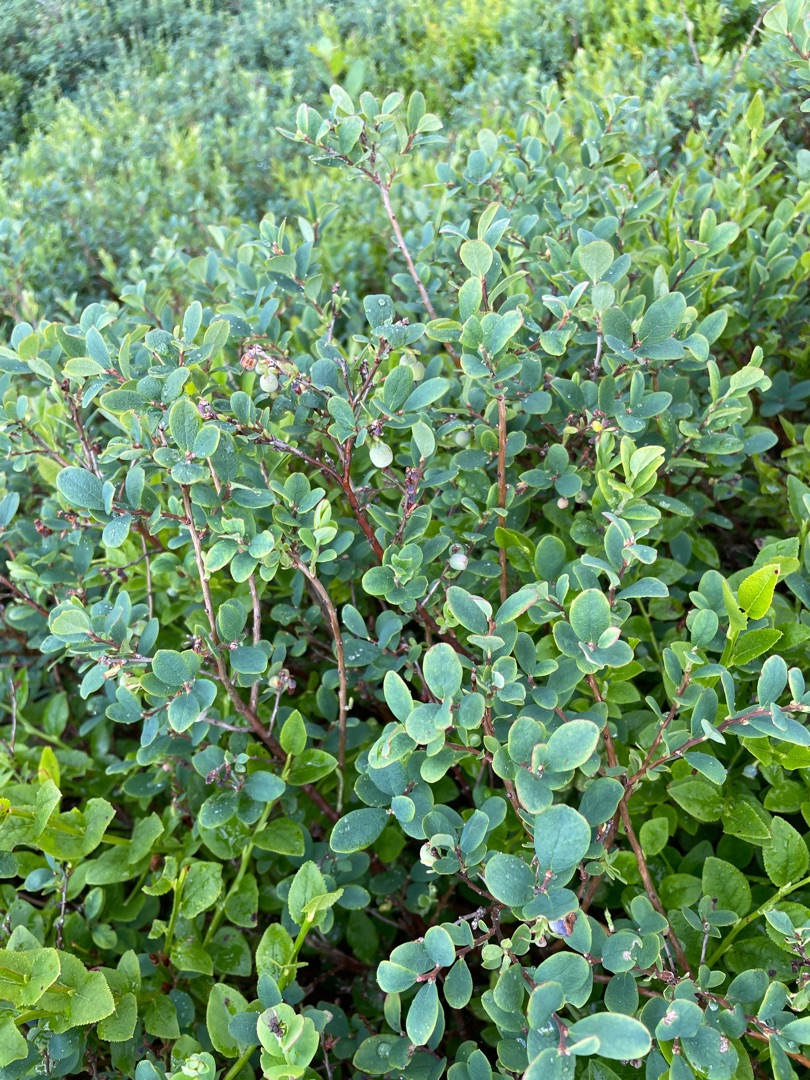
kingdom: Plantae
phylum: Tracheophyta
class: Magnoliopsida
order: Ericales
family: Ericaceae
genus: Vaccinium
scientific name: Vaccinium uliginosum
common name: Mose-bølle
